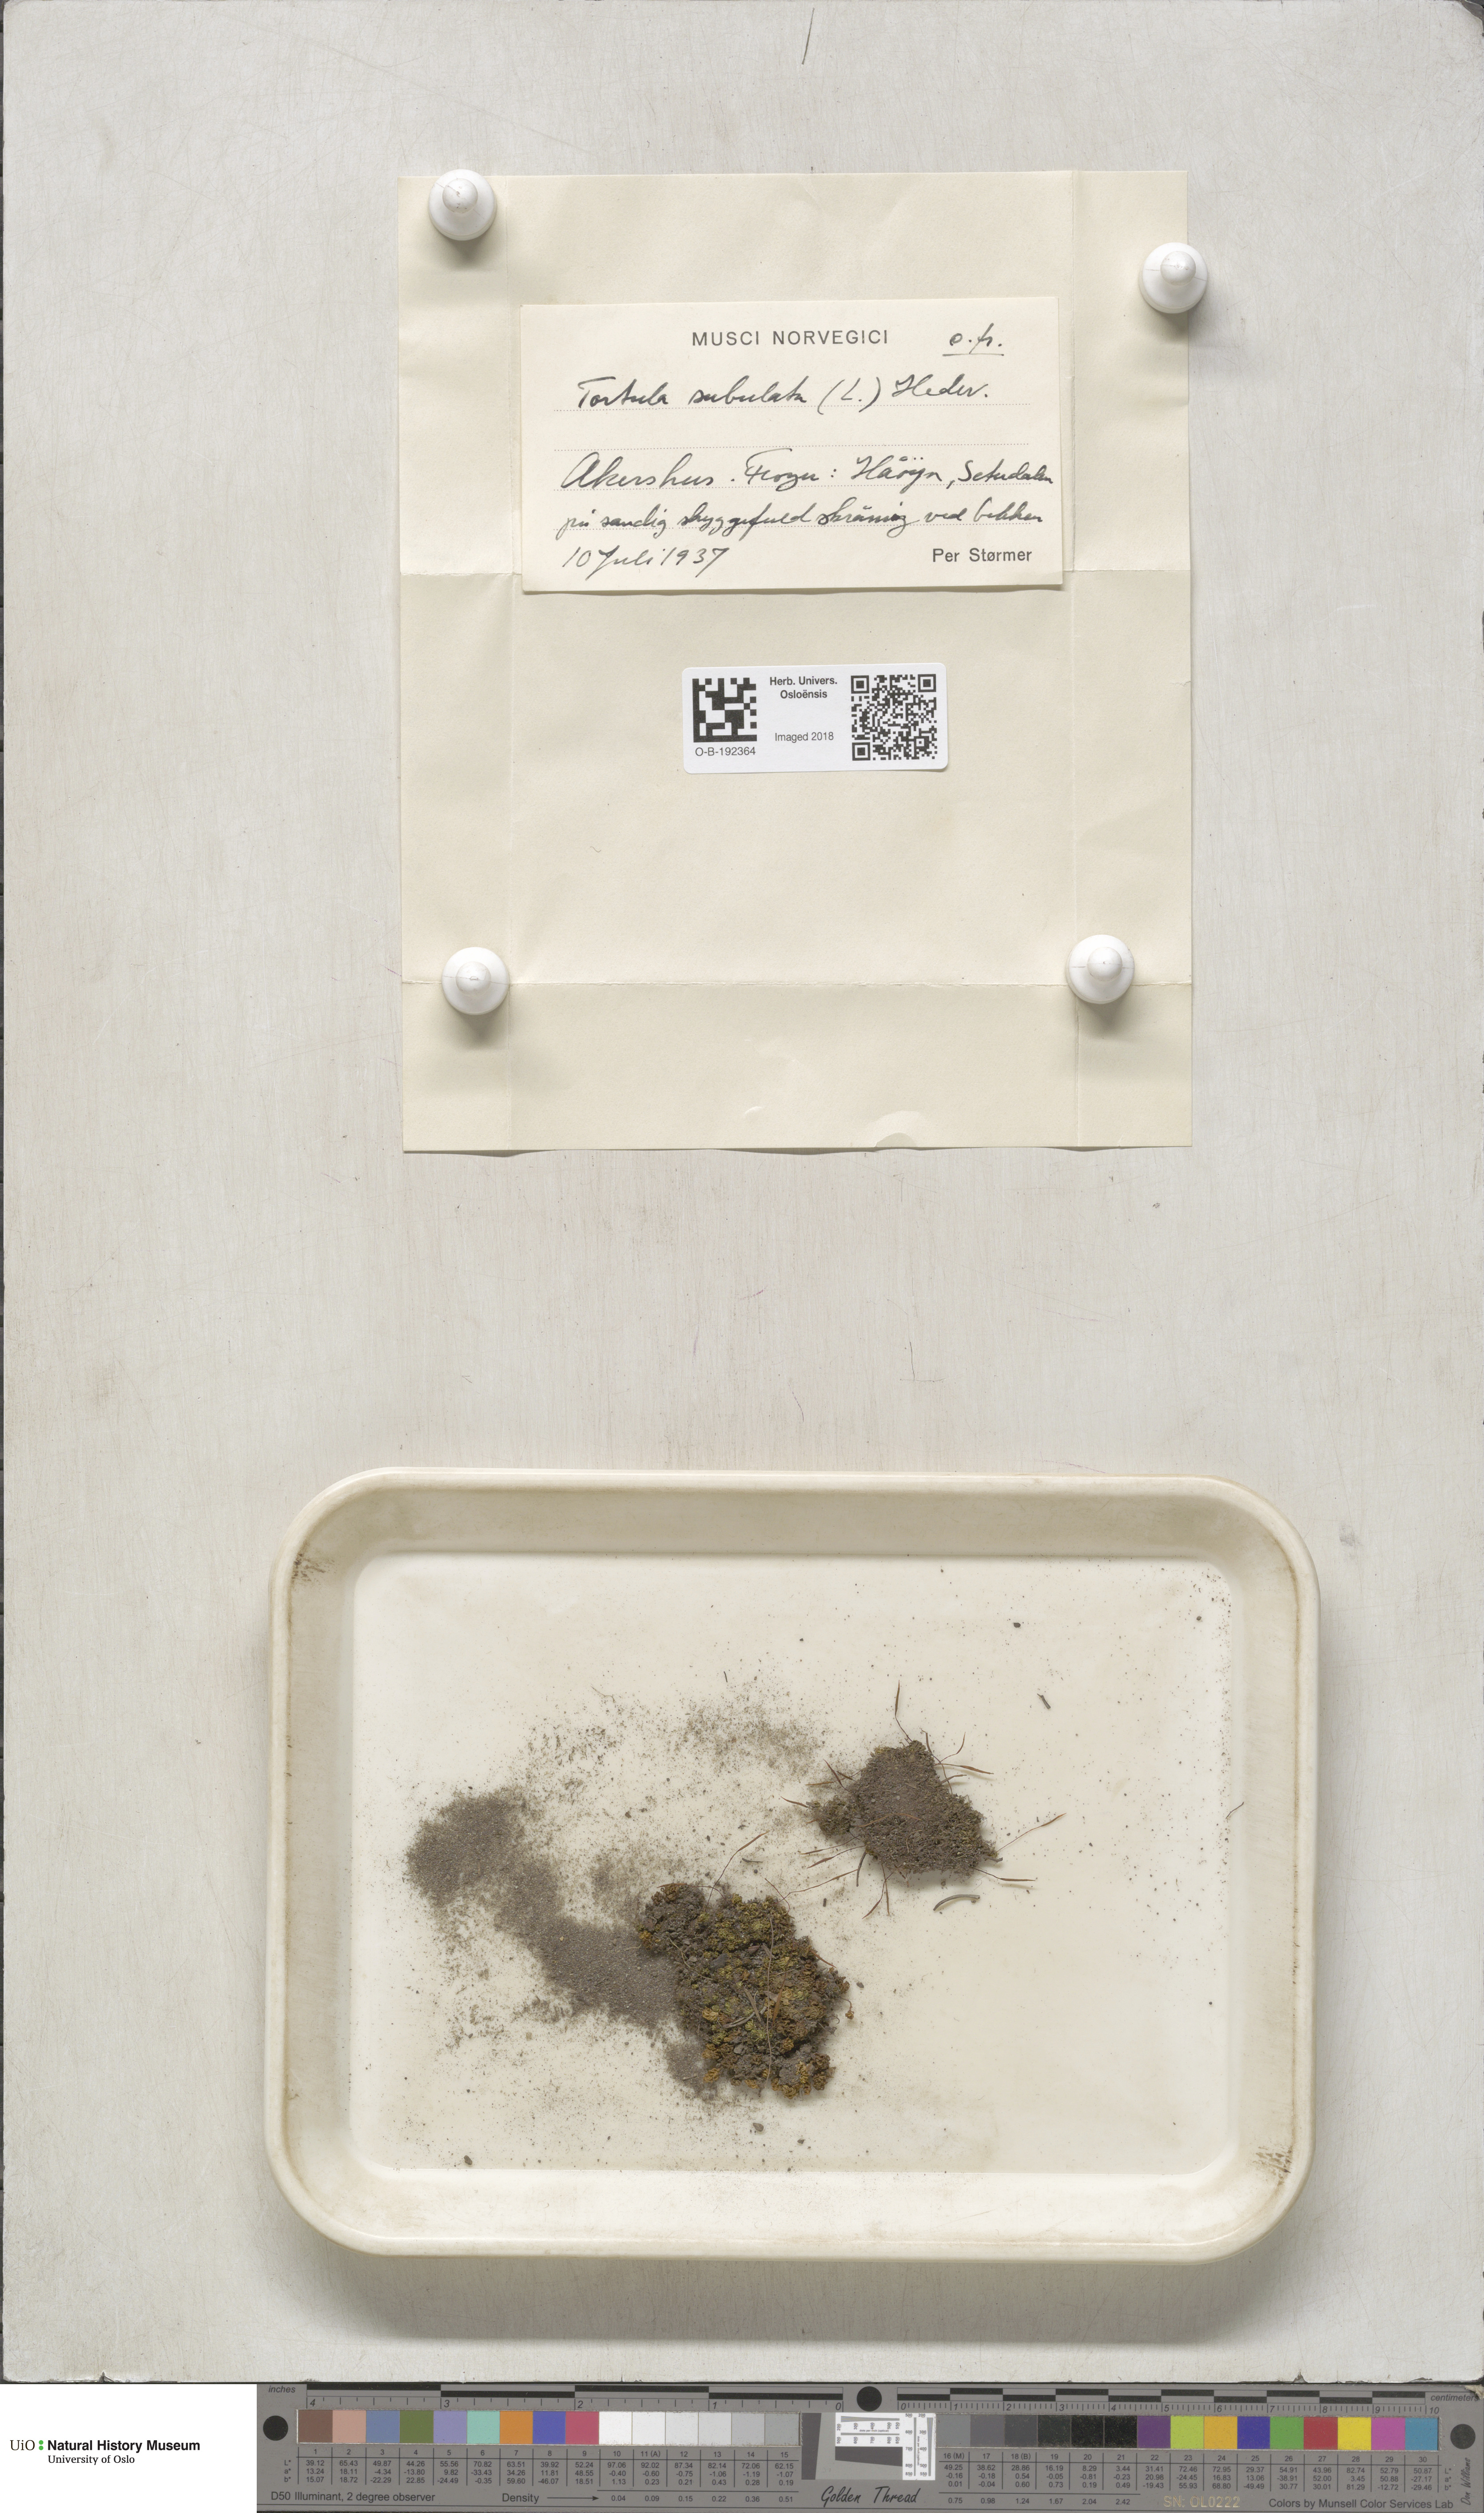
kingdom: Plantae
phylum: Bryophyta
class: Bryopsida
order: Pottiales
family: Pottiaceae
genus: Tortula
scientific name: Tortula subulata
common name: Upright screw-moss
